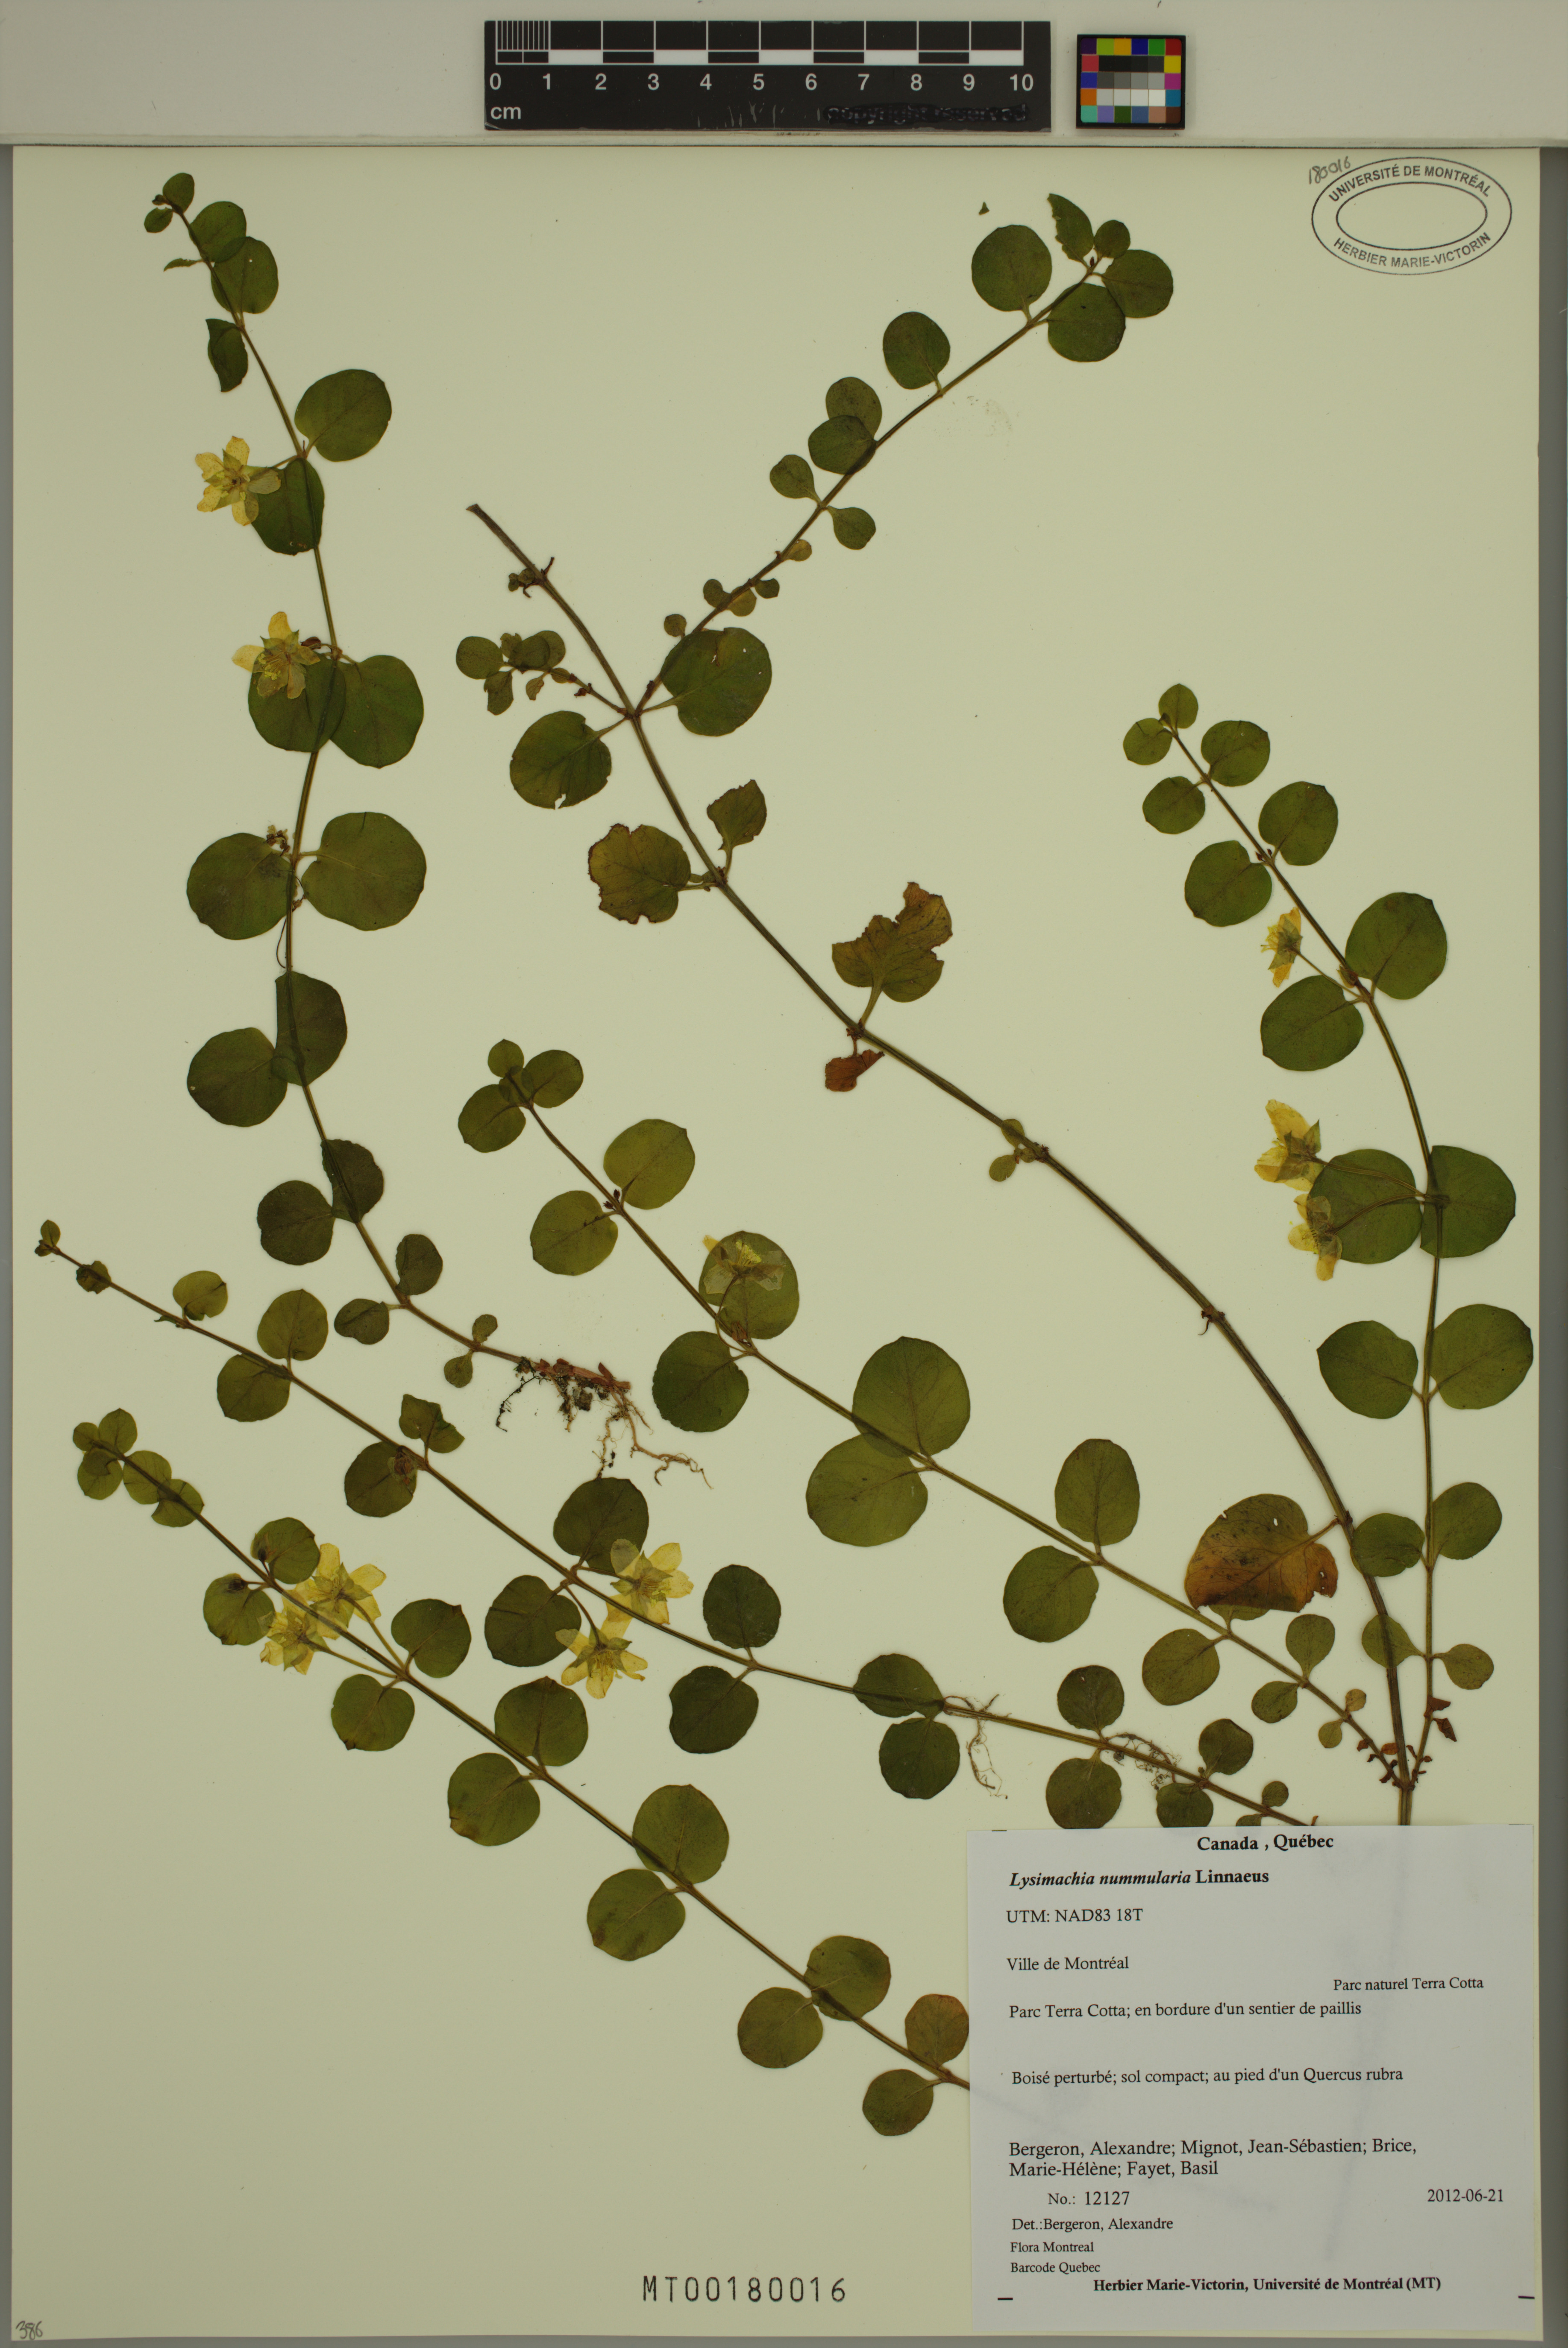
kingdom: Plantae
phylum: Tracheophyta
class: Magnoliopsida
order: Ericales
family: Primulaceae
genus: Lysimachia
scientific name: Lysimachia nummularia
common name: Moneywort
